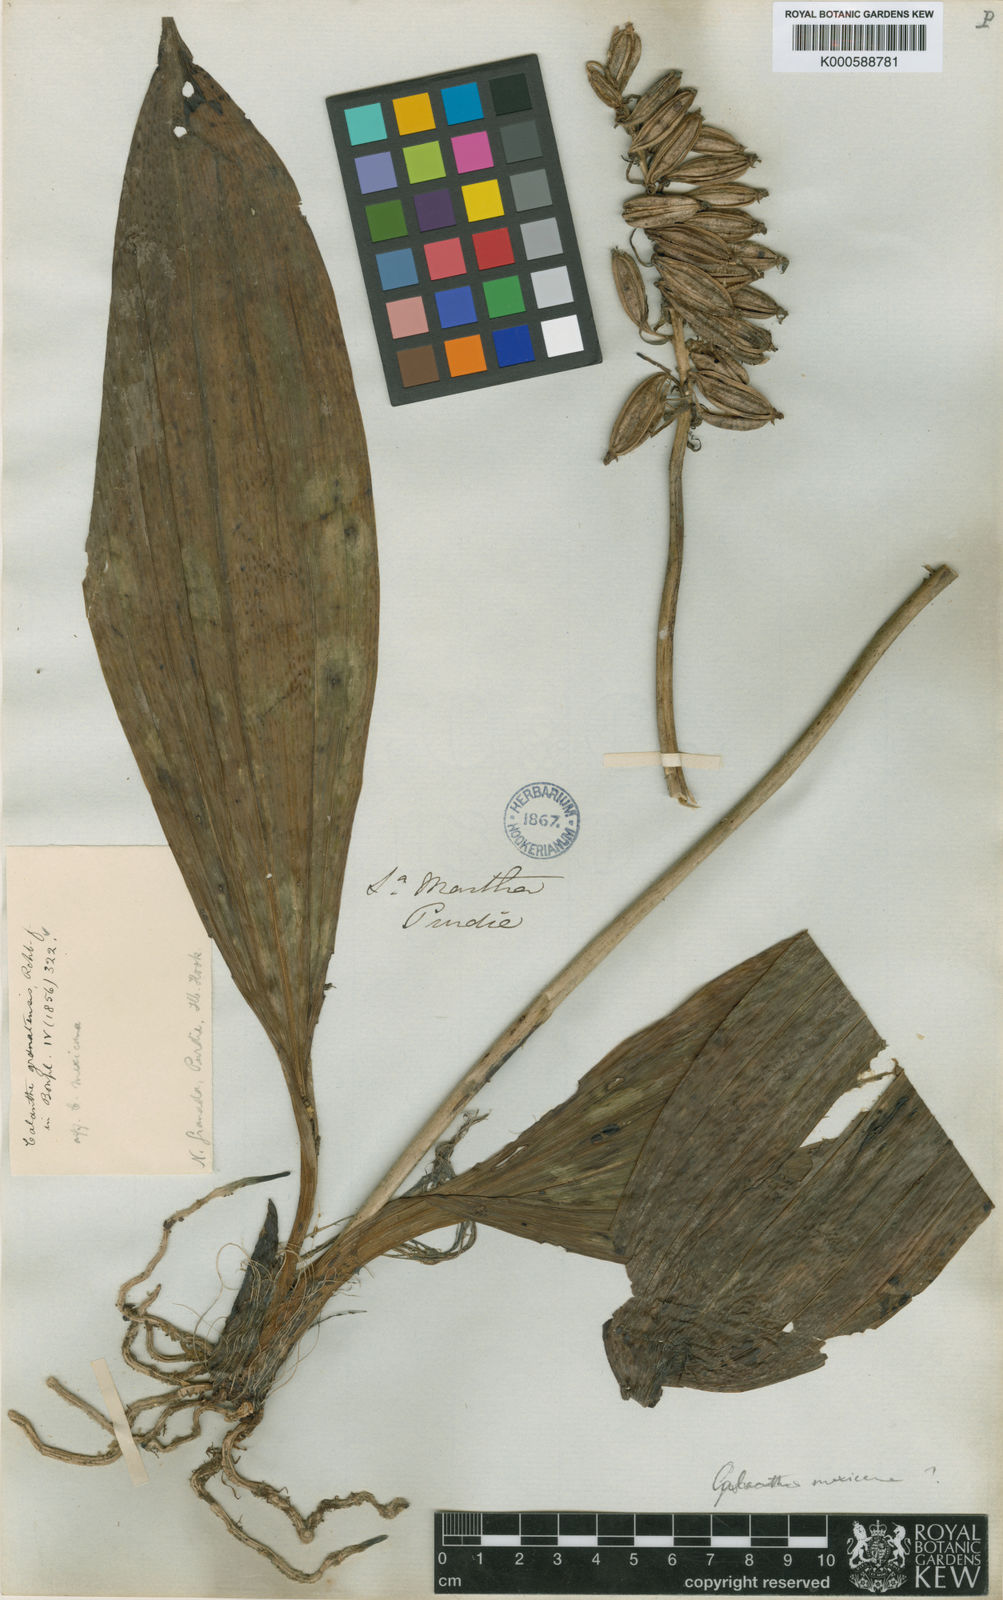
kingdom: Plantae
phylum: Tracheophyta
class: Liliopsida
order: Asparagales
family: Orchidaceae
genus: Calanthe
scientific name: Calanthe calanthoides
